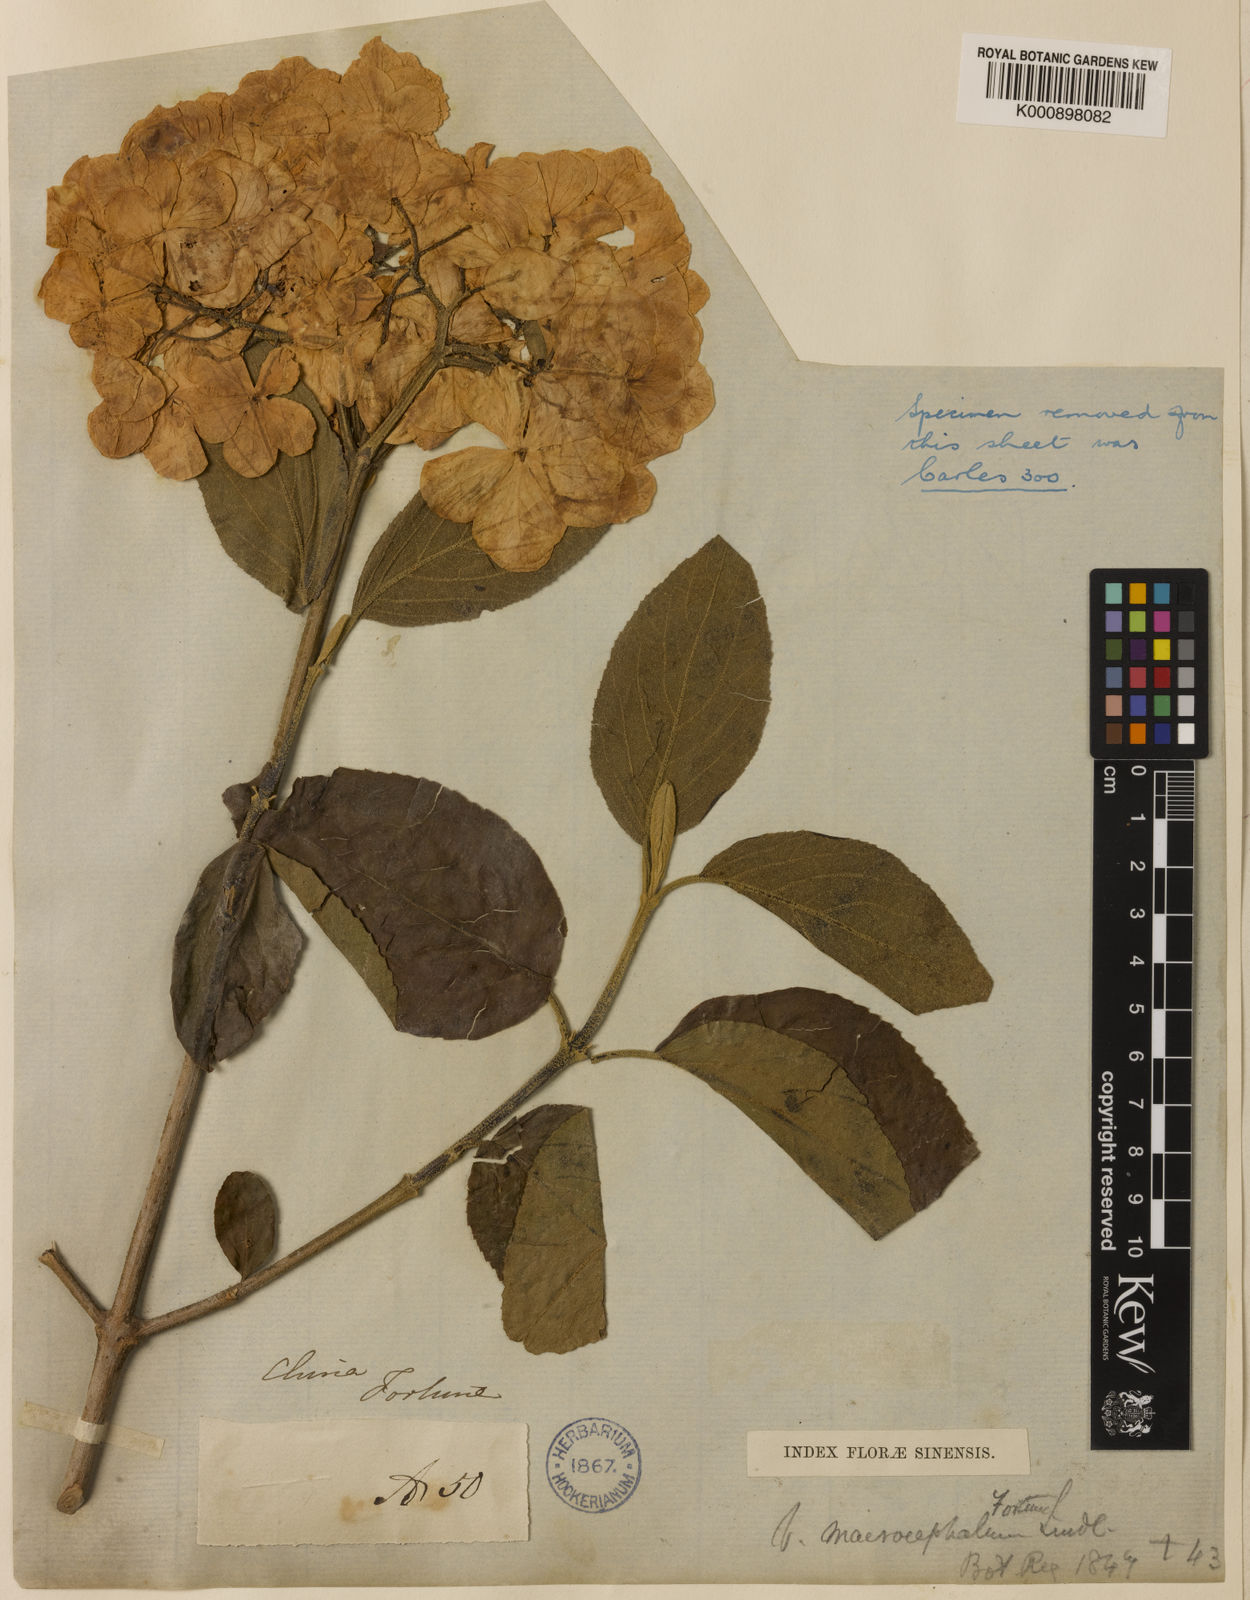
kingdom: Plantae
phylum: Tracheophyta
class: Magnoliopsida
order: Dipsacales
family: Viburnaceae
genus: Viburnum
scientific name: Viburnum macrocephalum
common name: Chinese snowball viburnum
